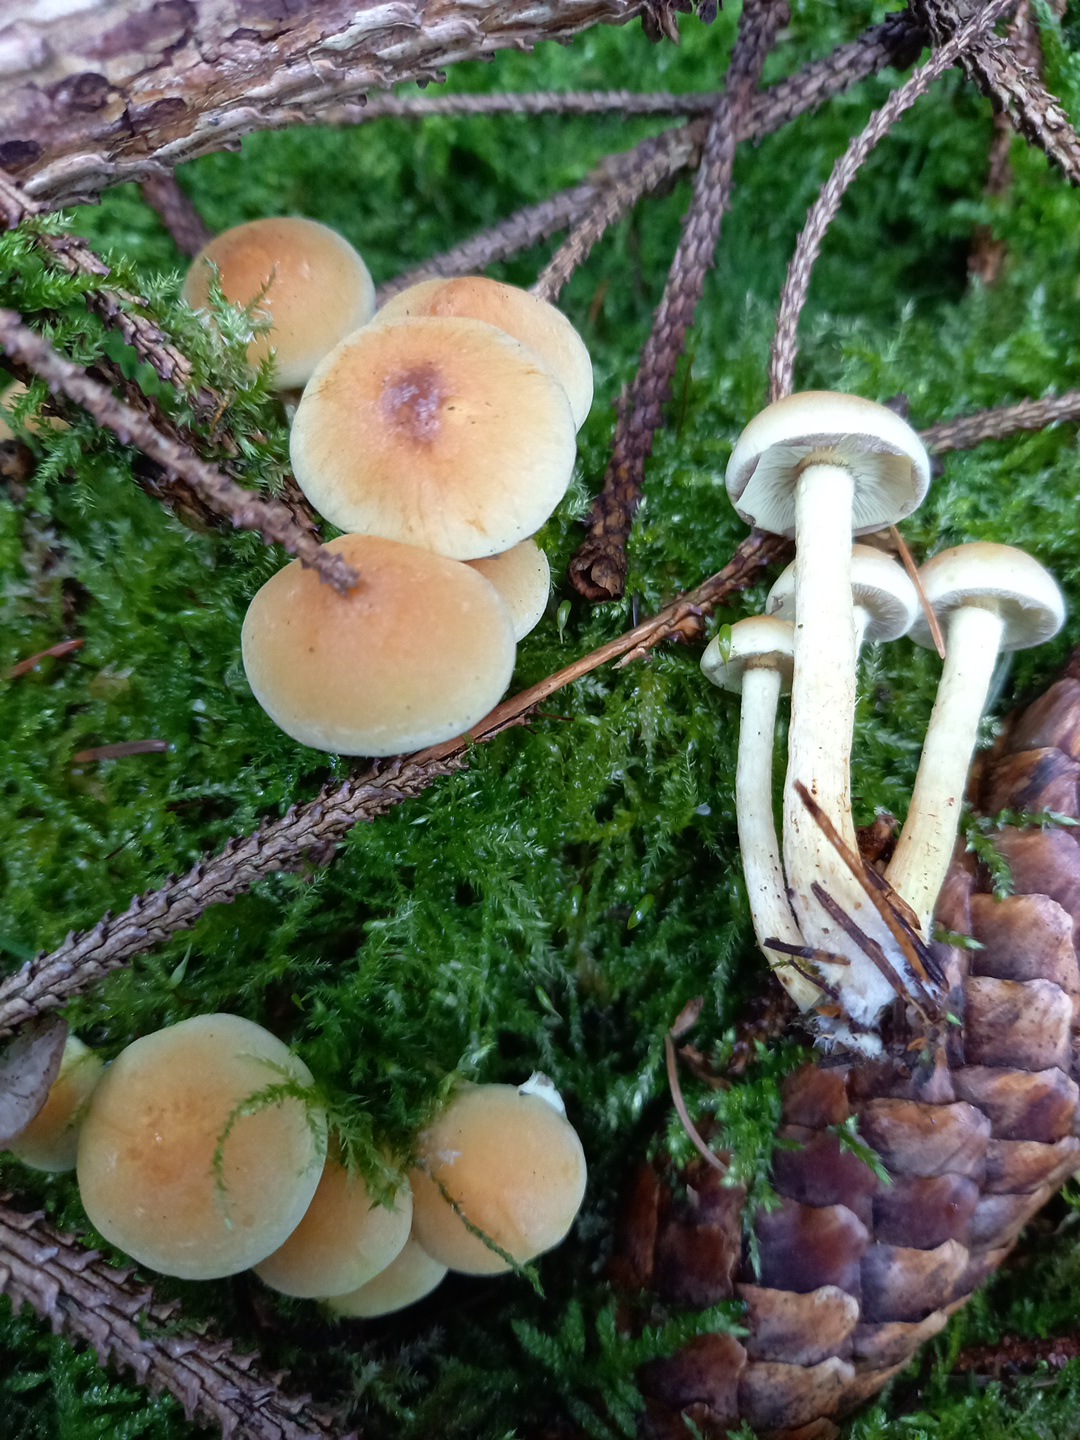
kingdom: Fungi
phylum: Basidiomycota
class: Agaricomycetes
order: Agaricales
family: Strophariaceae
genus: Hypholoma
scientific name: Hypholoma fasciculare
